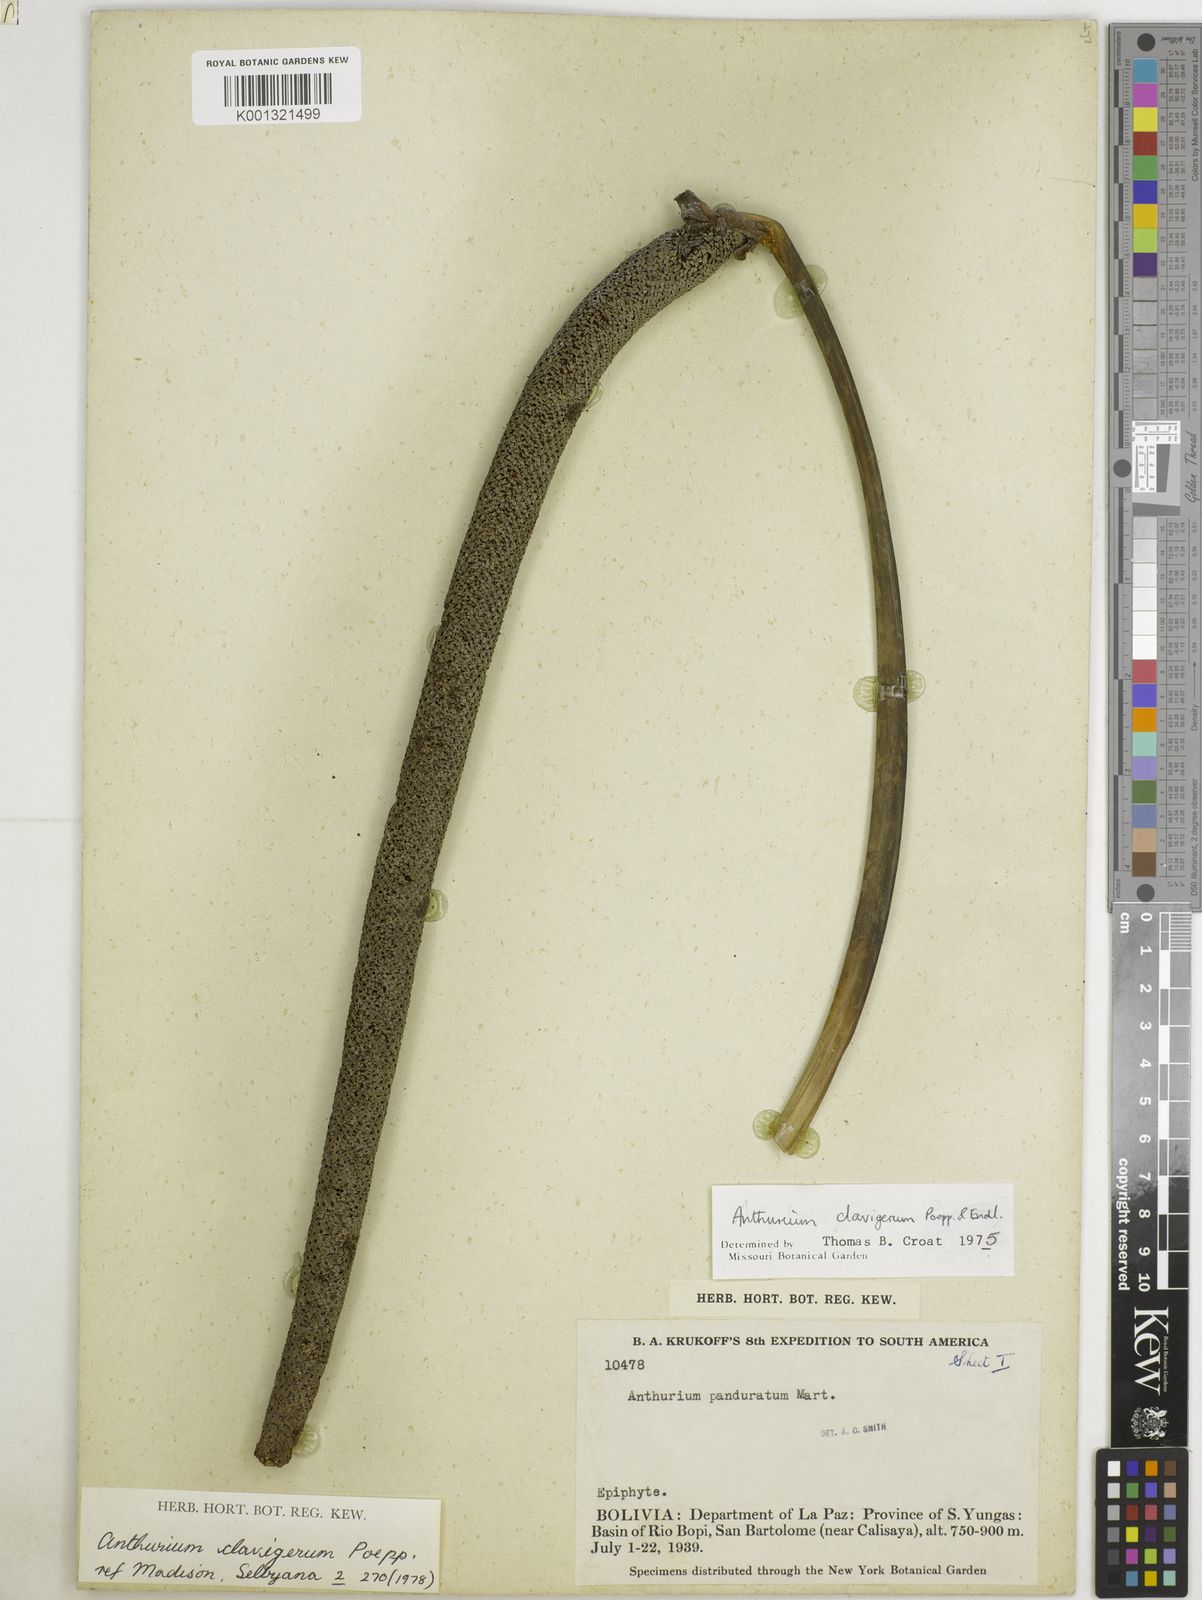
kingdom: Plantae
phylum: Tracheophyta
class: Liliopsida
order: Alismatales
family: Araceae
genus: Anthurium
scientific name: Anthurium clavigerum
